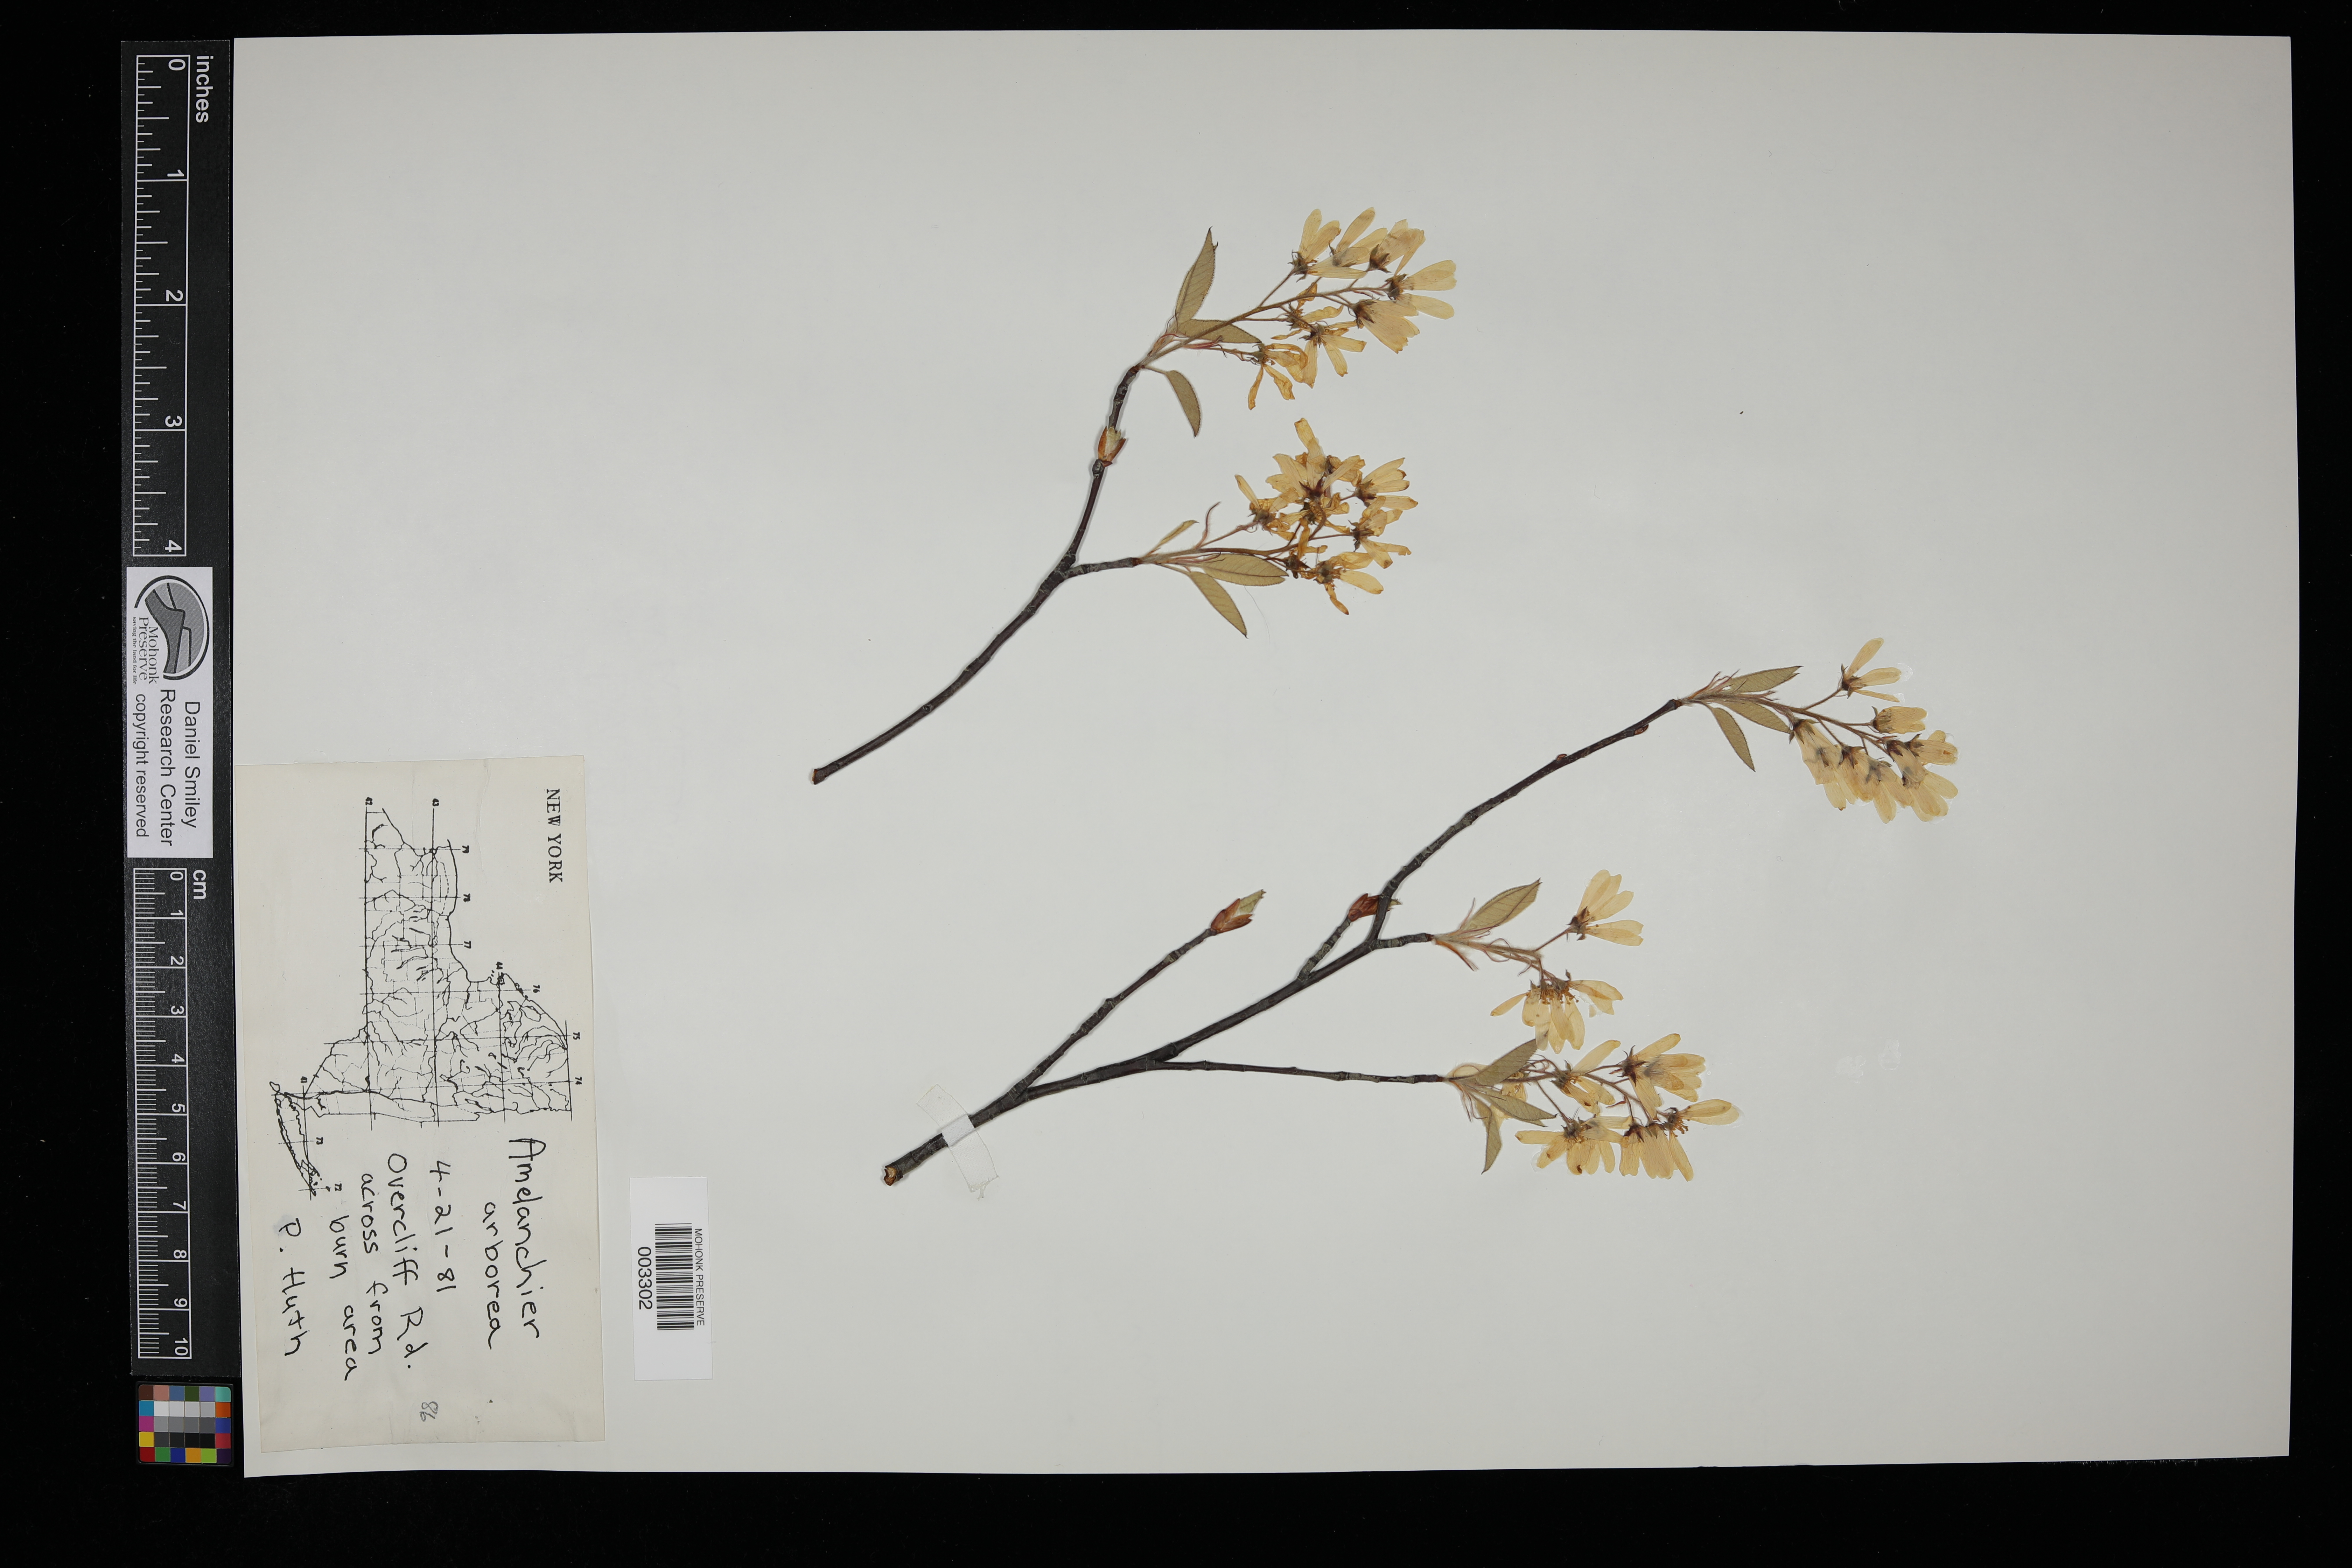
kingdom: Plantae
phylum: Tracheophyta
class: Magnoliopsida
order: Rosales
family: Rosaceae
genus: Amelanchier
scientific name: Amelanchier arborea
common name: Downy serviceberry
